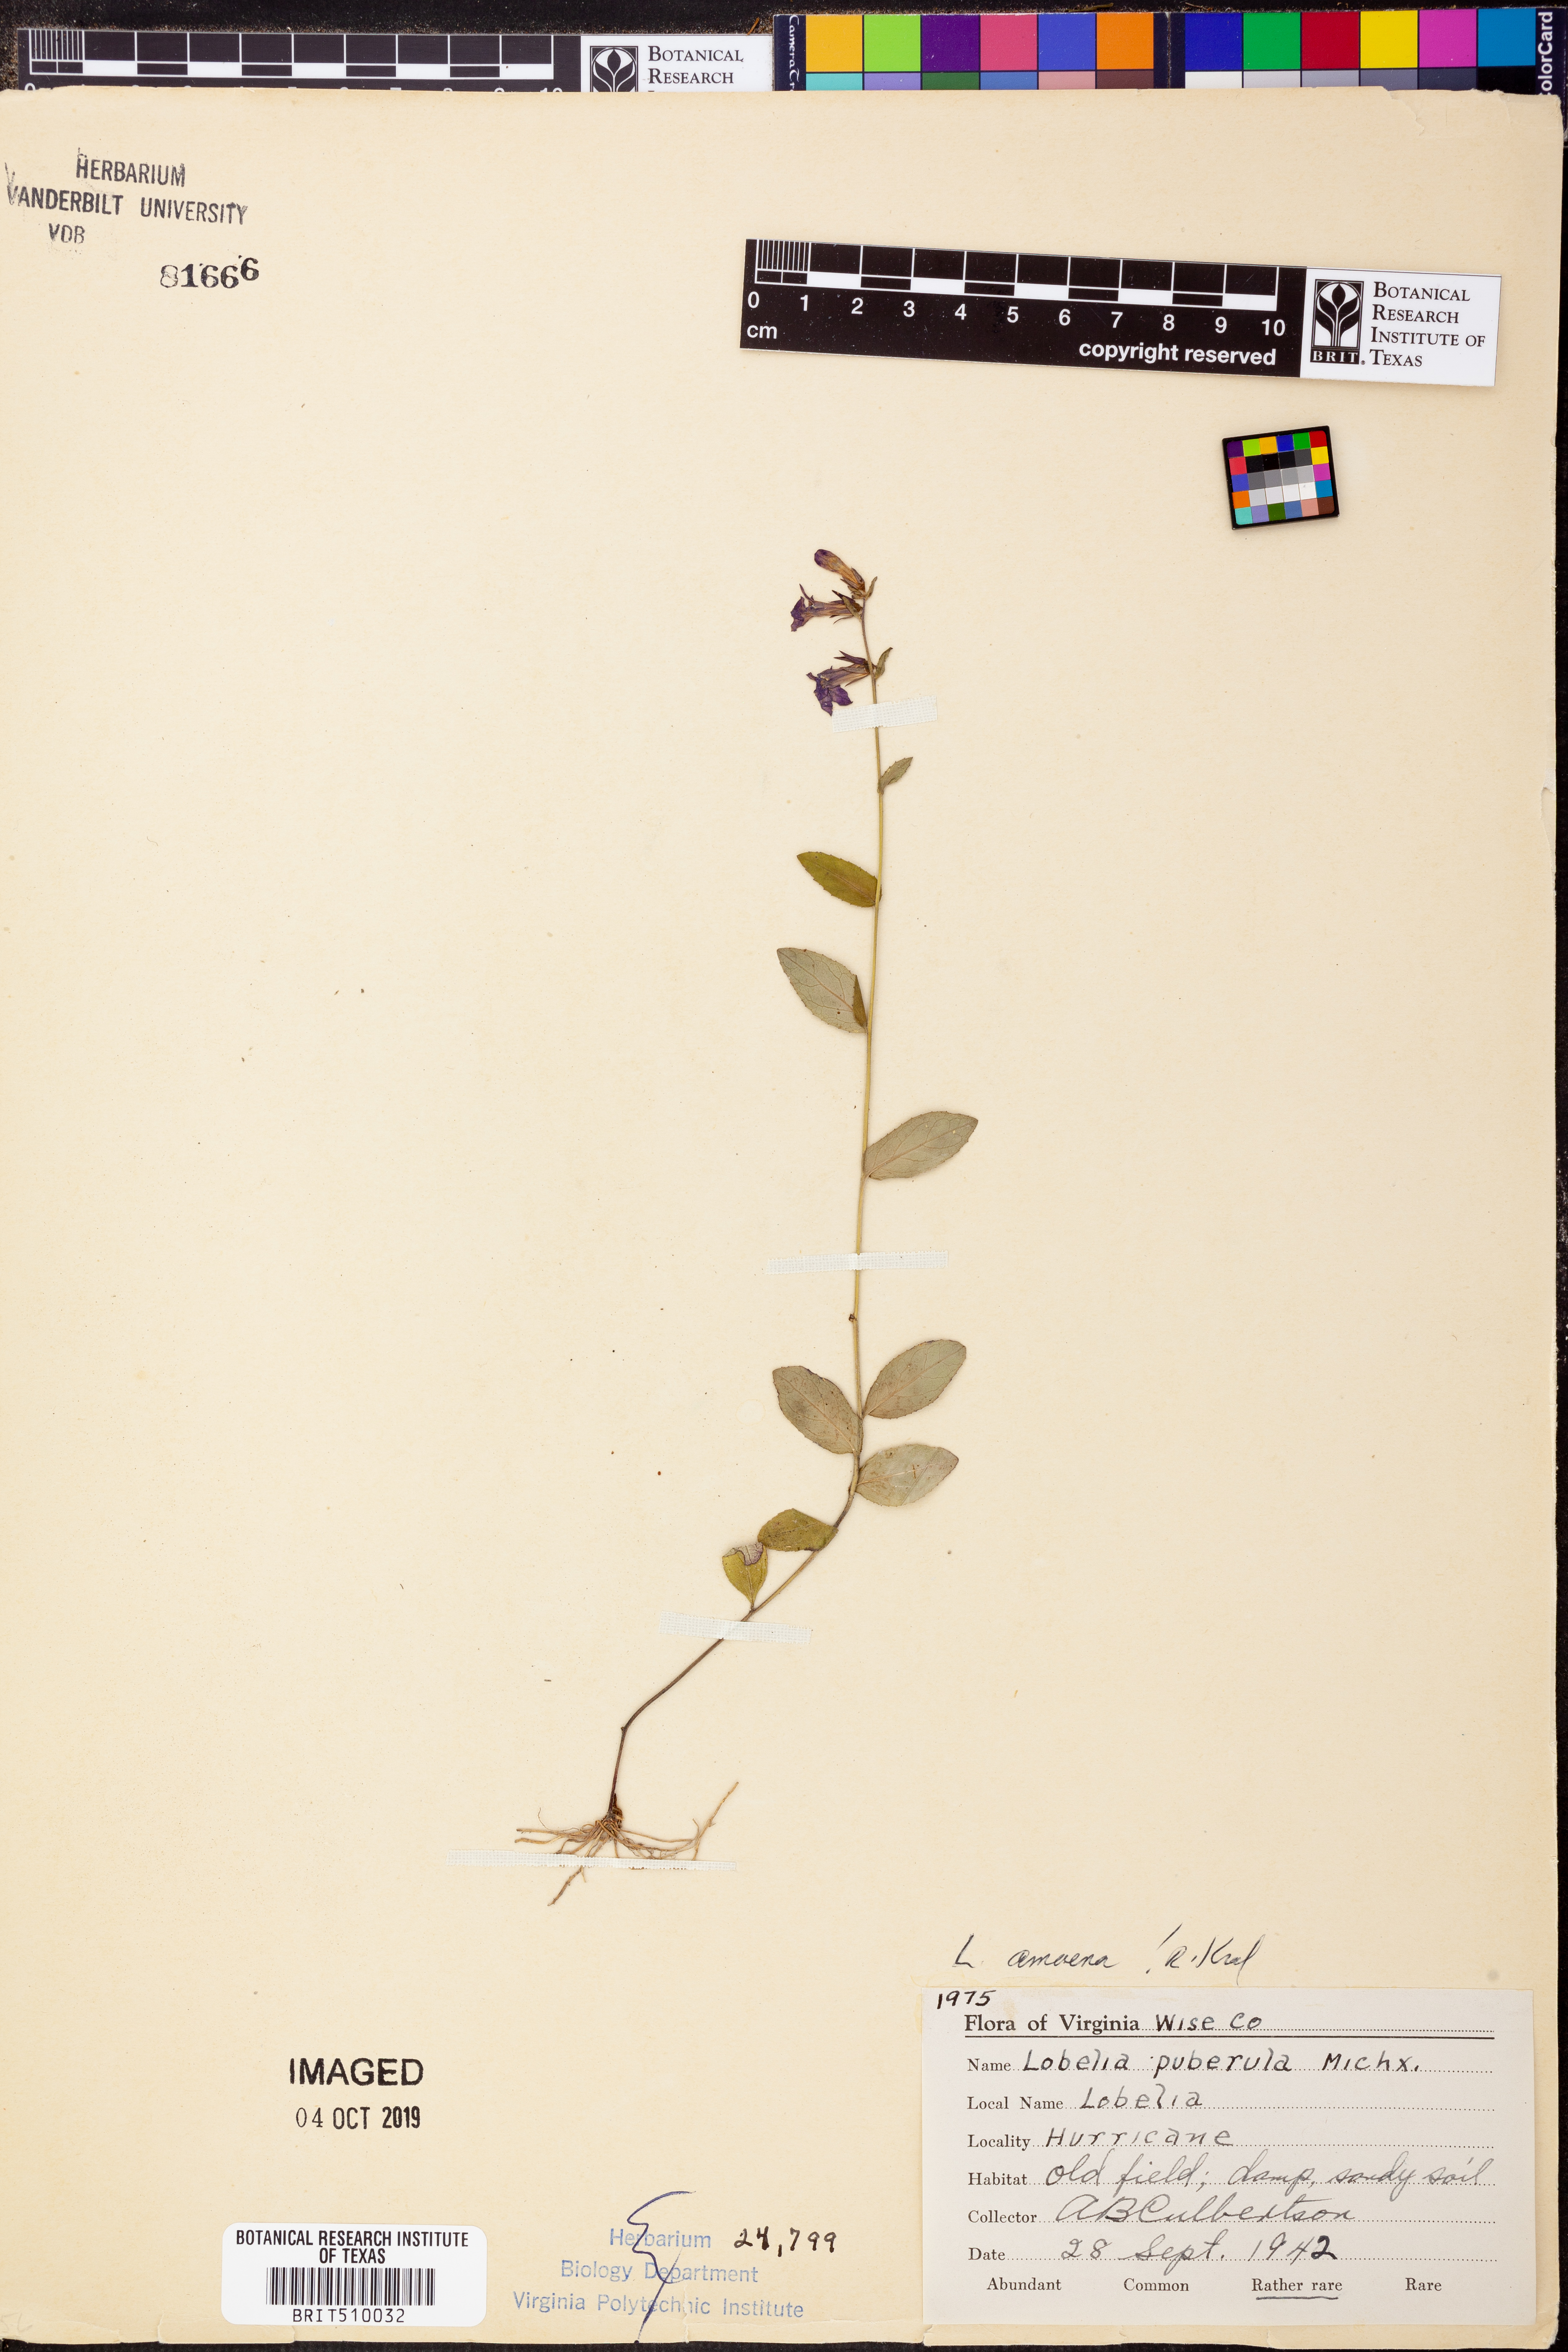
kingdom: Plantae
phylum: Tracheophyta
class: Magnoliopsida
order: Asterales
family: Campanulaceae
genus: Lobelia
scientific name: Lobelia amoena
